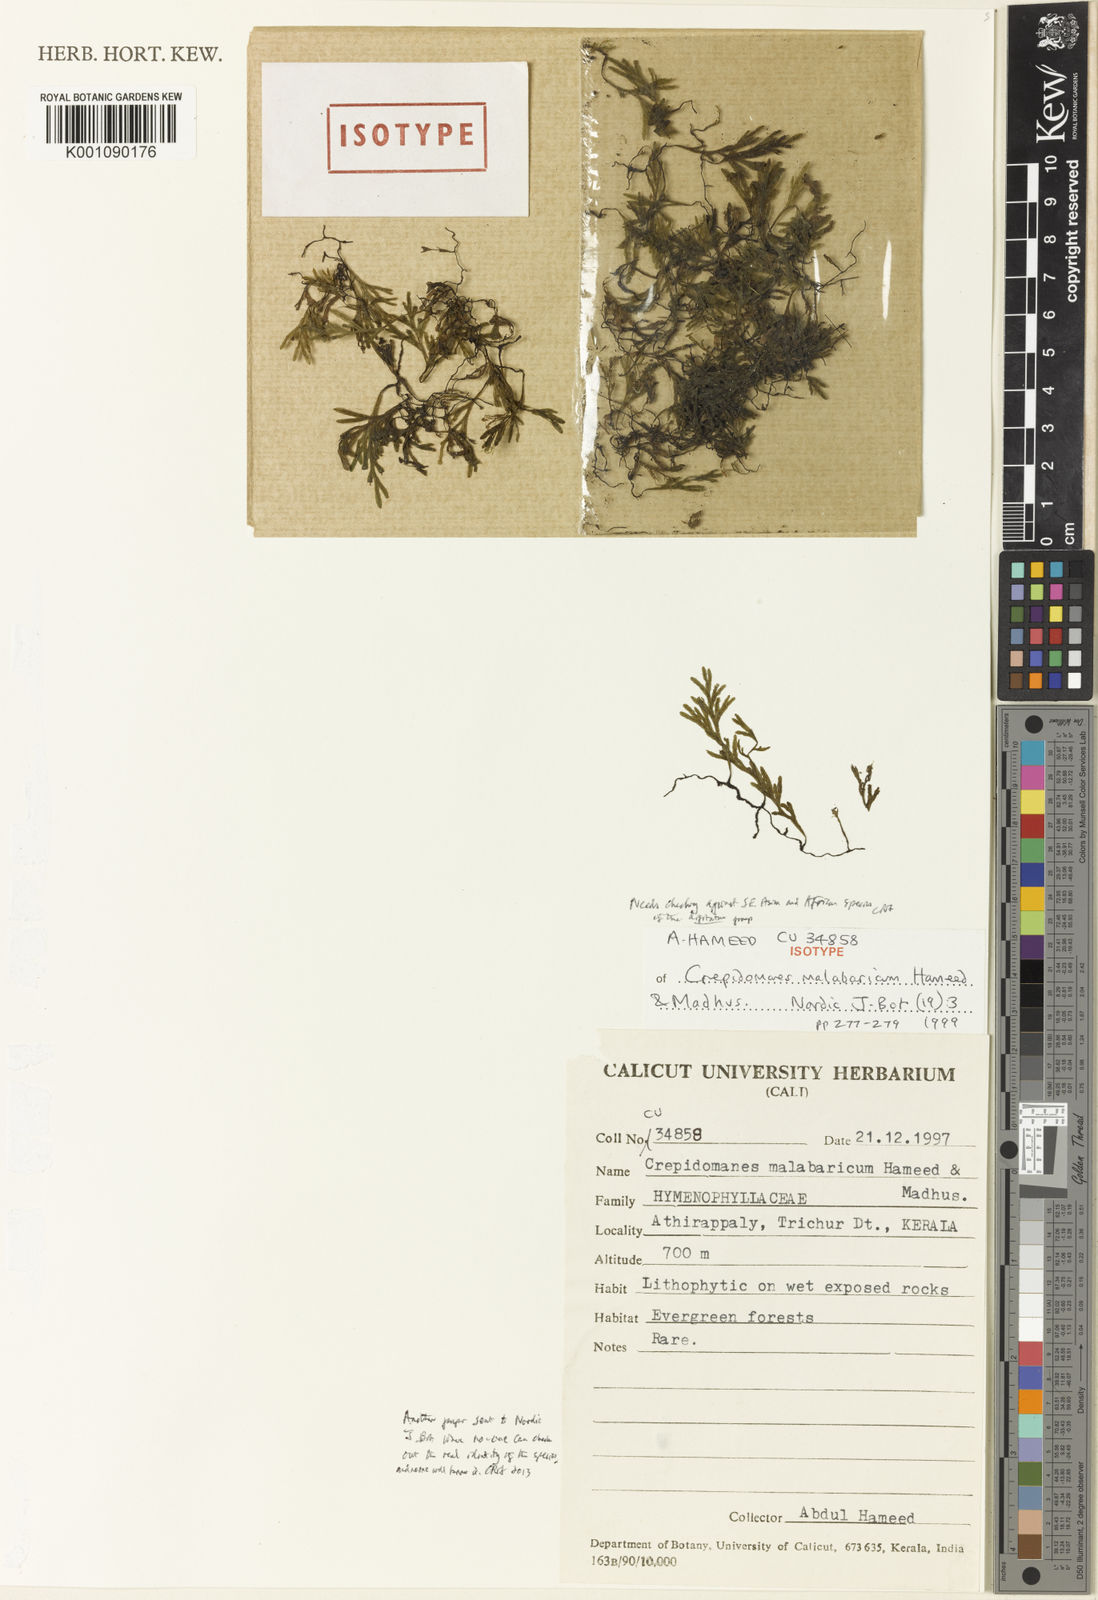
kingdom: Plantae
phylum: Tracheophyta
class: Polypodiopsida
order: Hymenophyllales
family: Hymenophyllaceae
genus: Trichomanes
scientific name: Trichomanes
